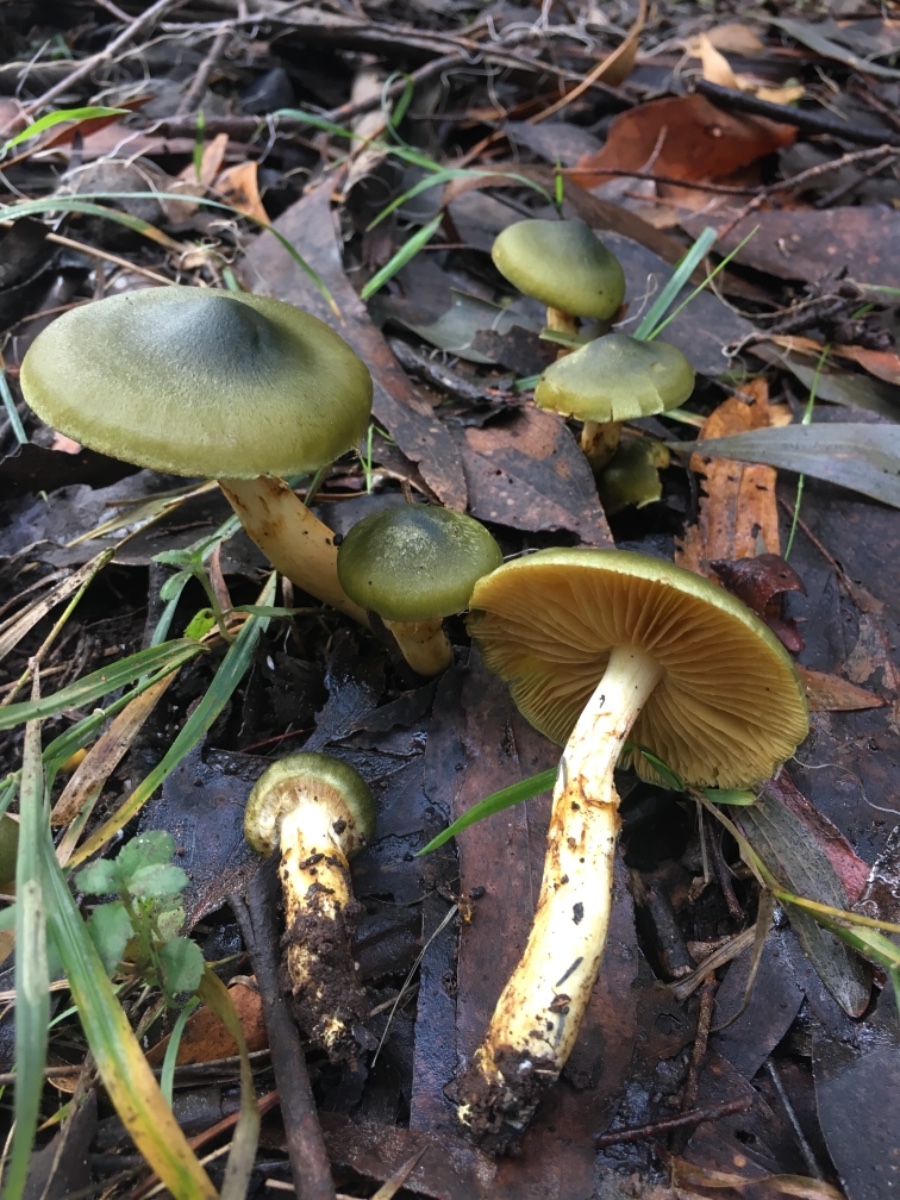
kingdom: Fungi
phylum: Basidiomycota
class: Agaricomycetes
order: Agaricales
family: Cortinariaceae
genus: Cortinarius
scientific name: Cortinarius austrovenetus
